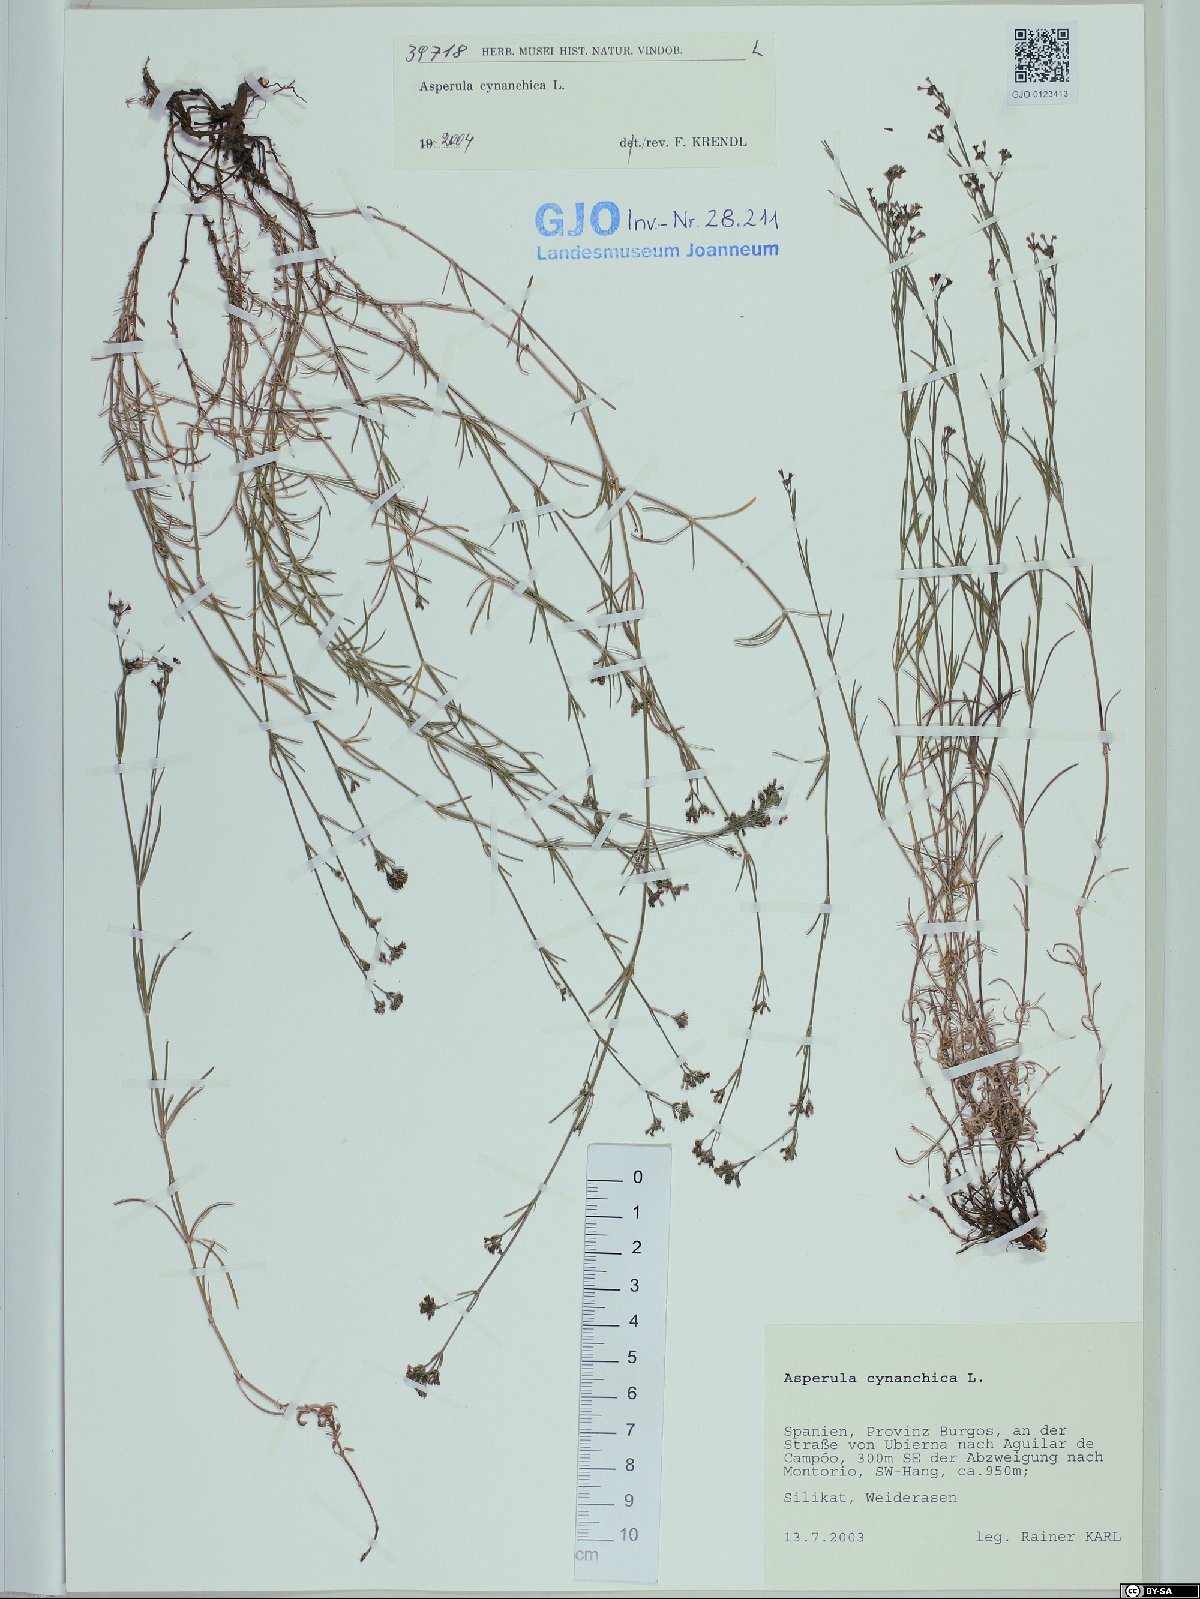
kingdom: Plantae
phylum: Tracheophyta
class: Magnoliopsida
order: Gentianales
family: Rubiaceae
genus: Cynanchica
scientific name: Cynanchica pyrenaica
